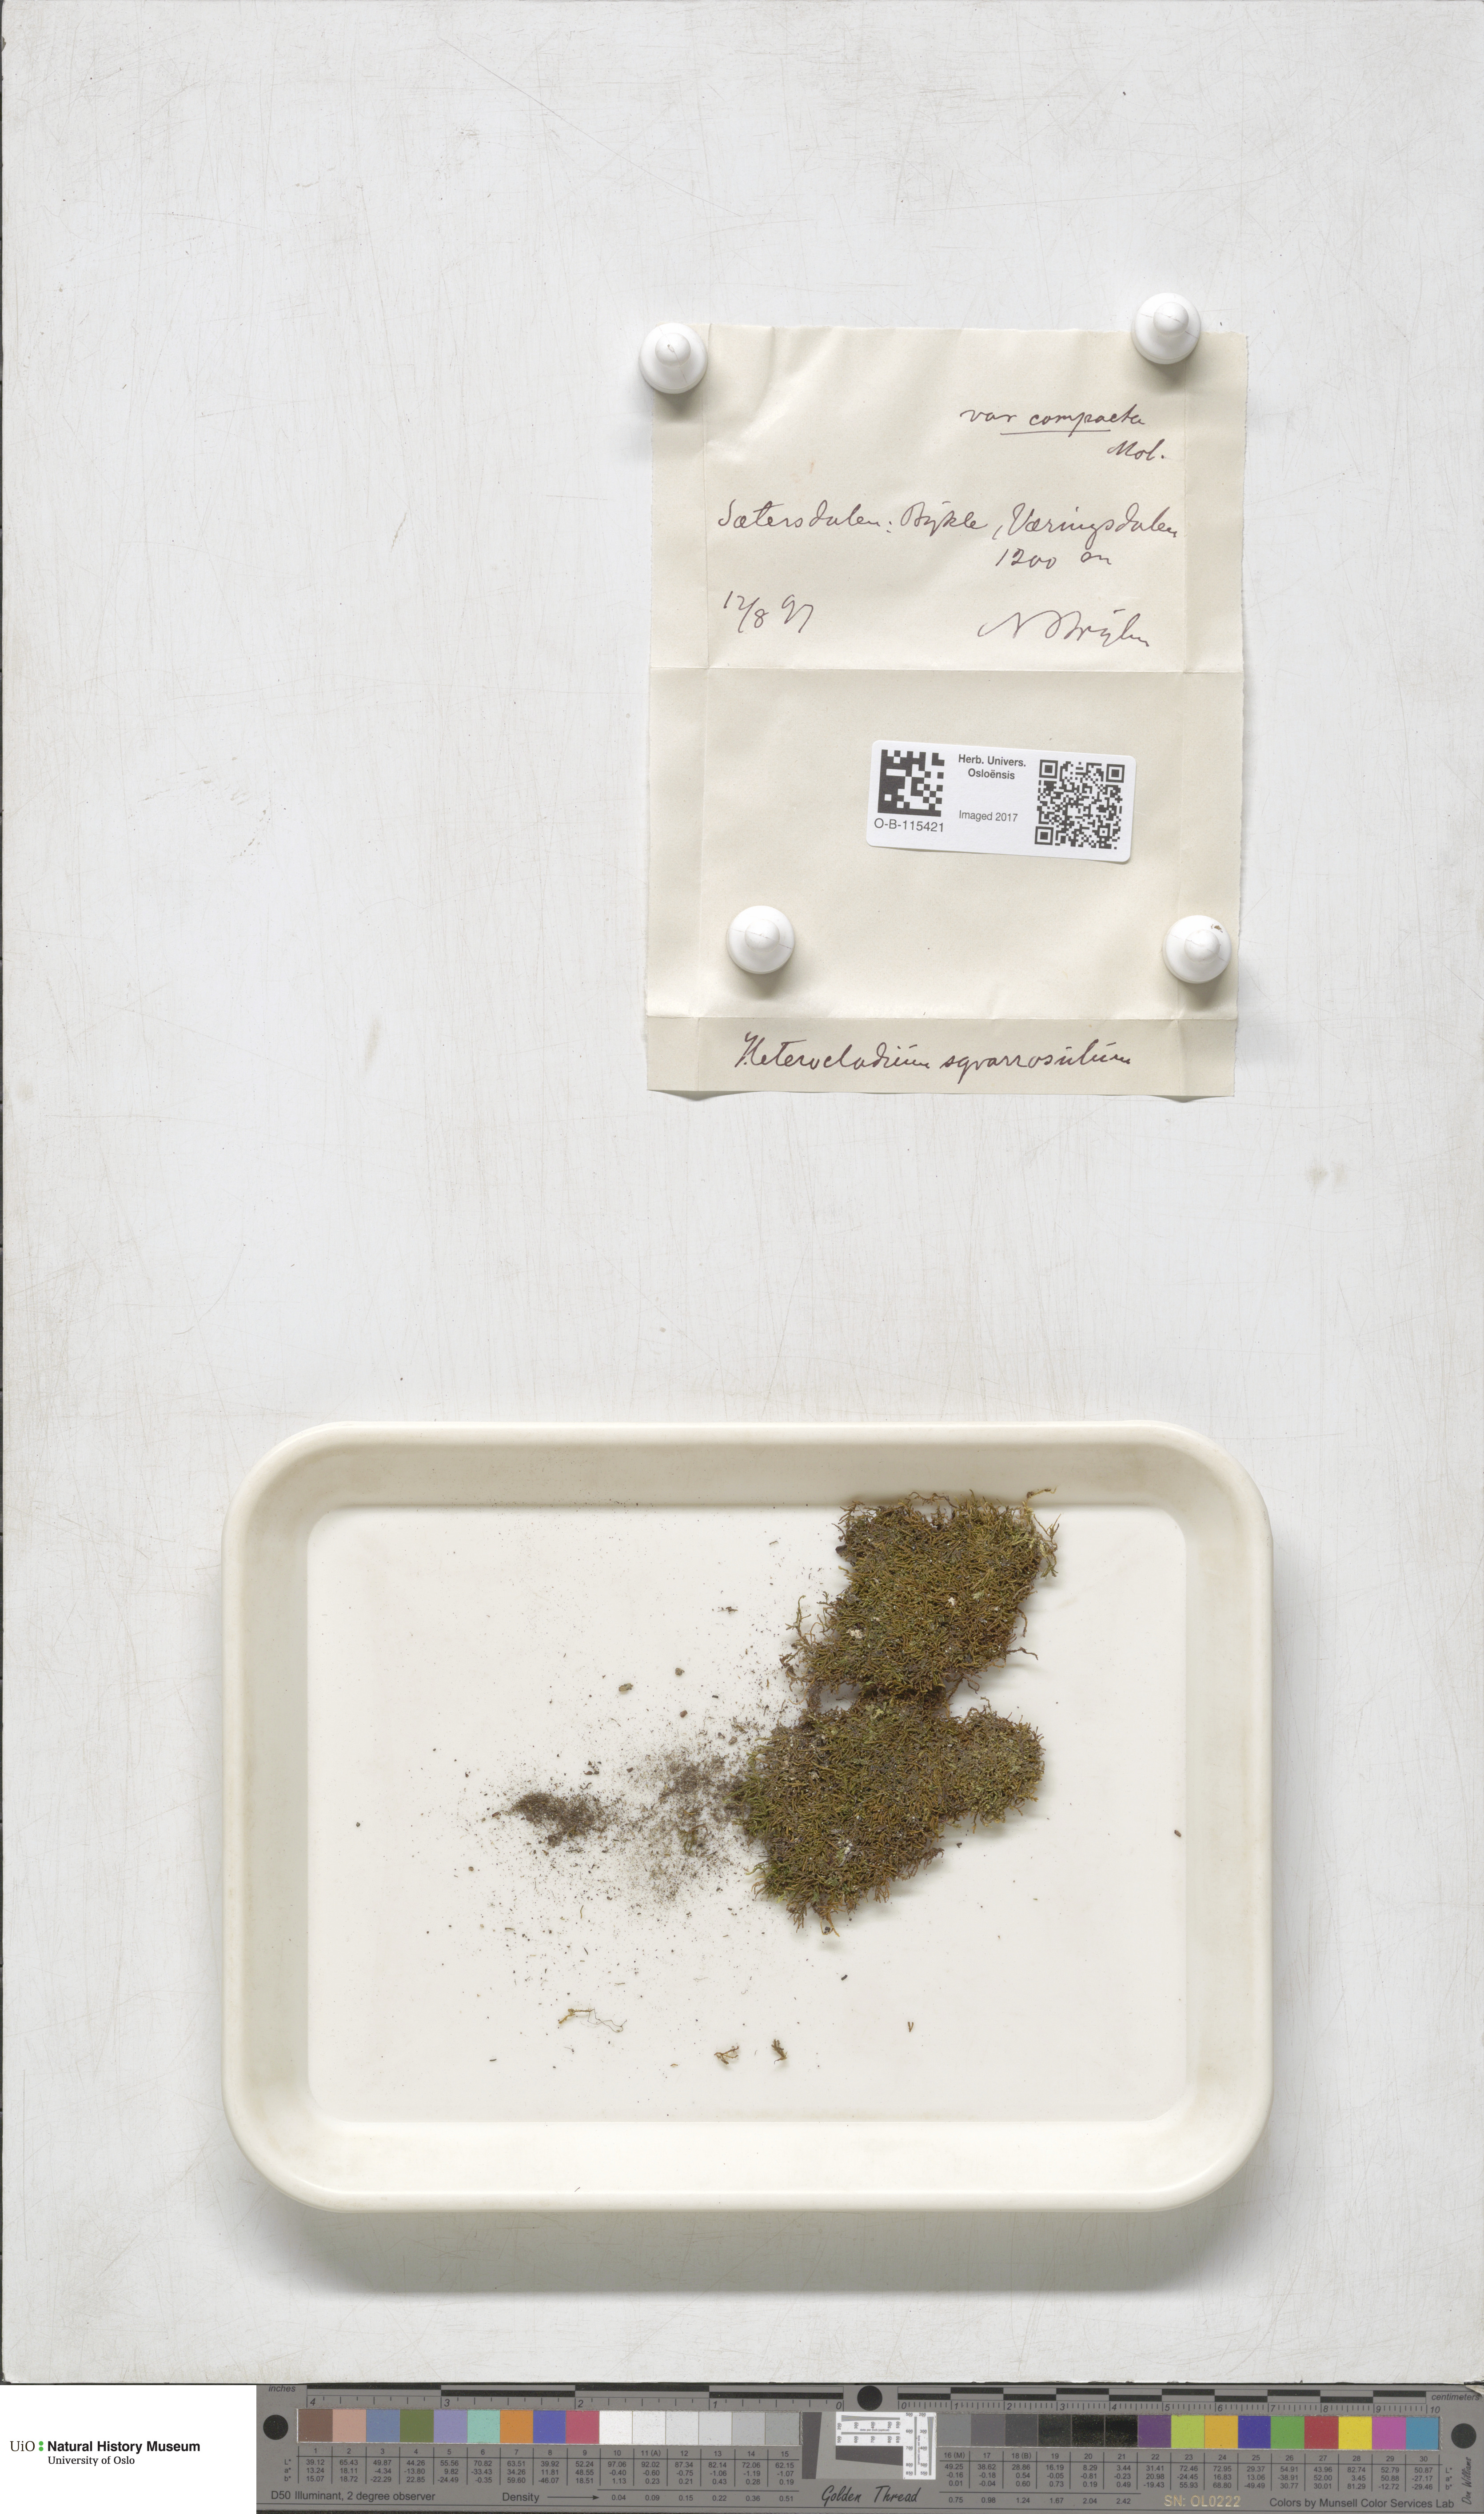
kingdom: Plantae
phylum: Bryophyta
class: Bryopsida
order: Hypnales
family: Heterocladiellaceae
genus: Heterocladiella
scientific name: Heterocladiella dimorpha
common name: Dimorphous tamarisk-moss
